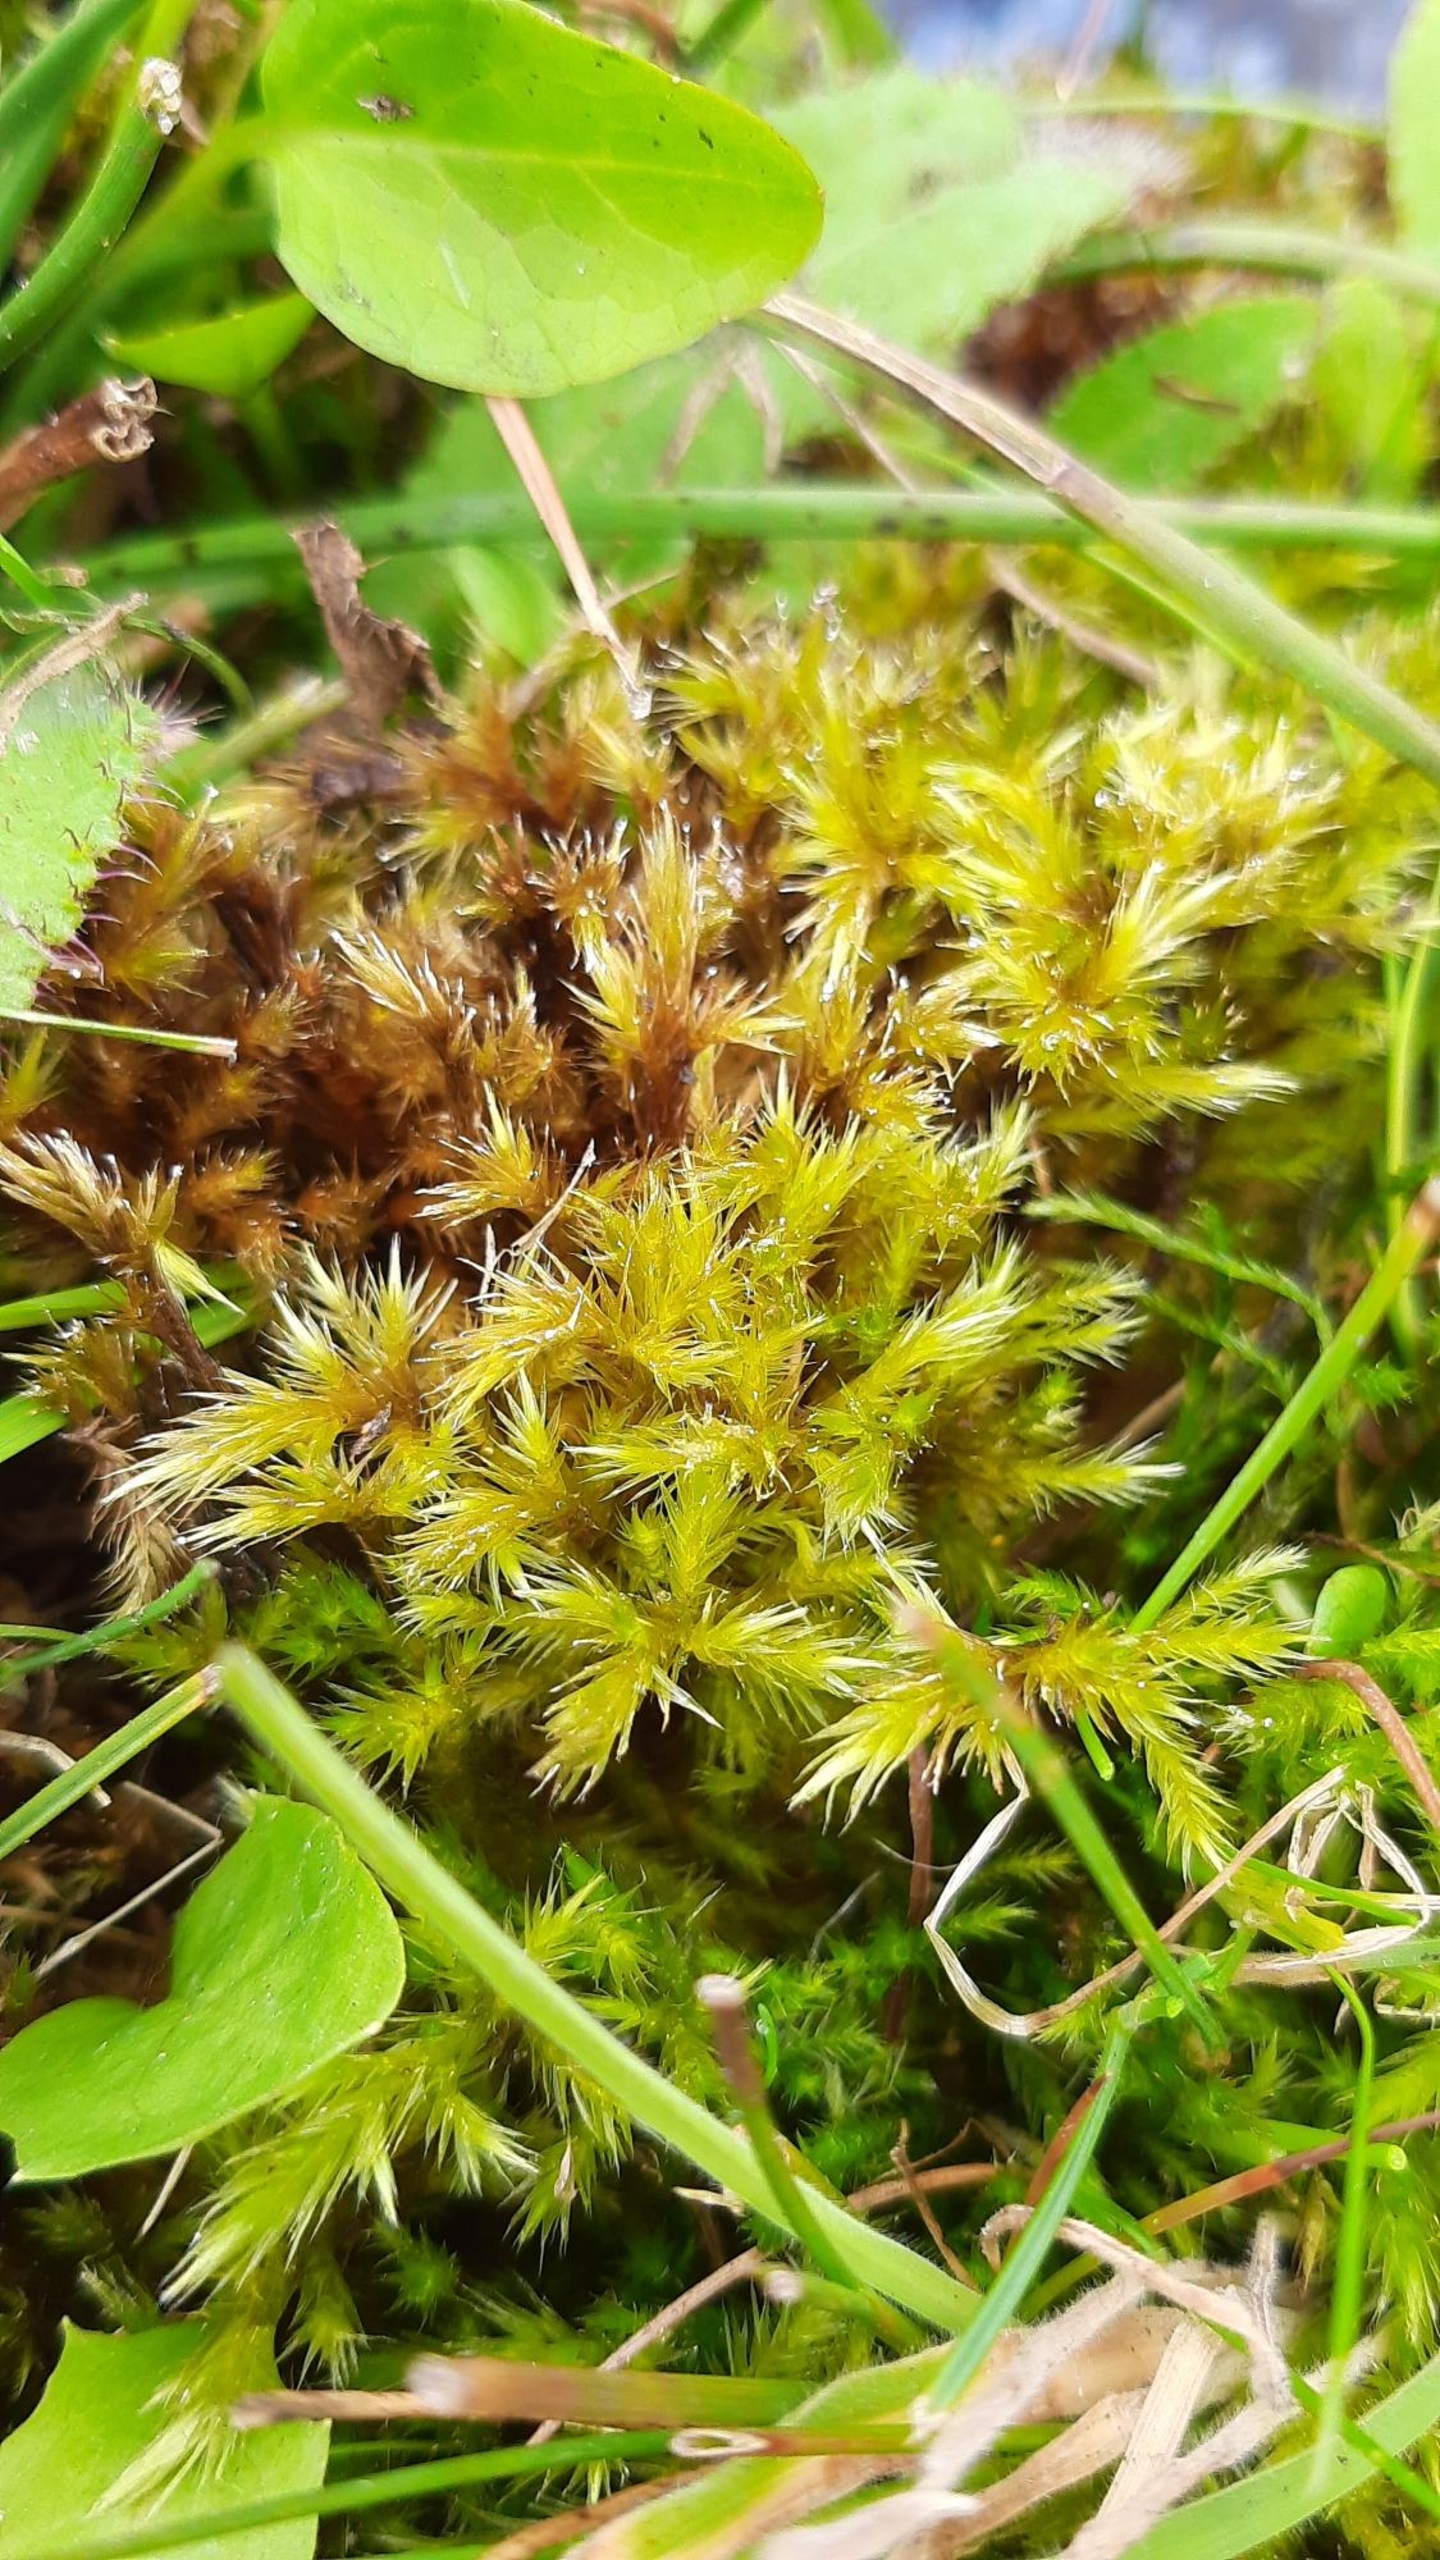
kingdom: Plantae
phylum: Bryophyta
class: Bryopsida
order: Hypnales
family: Amblystegiaceae
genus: Tomentypnum
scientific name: Tomentypnum nitens
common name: Glinsende kærmos
